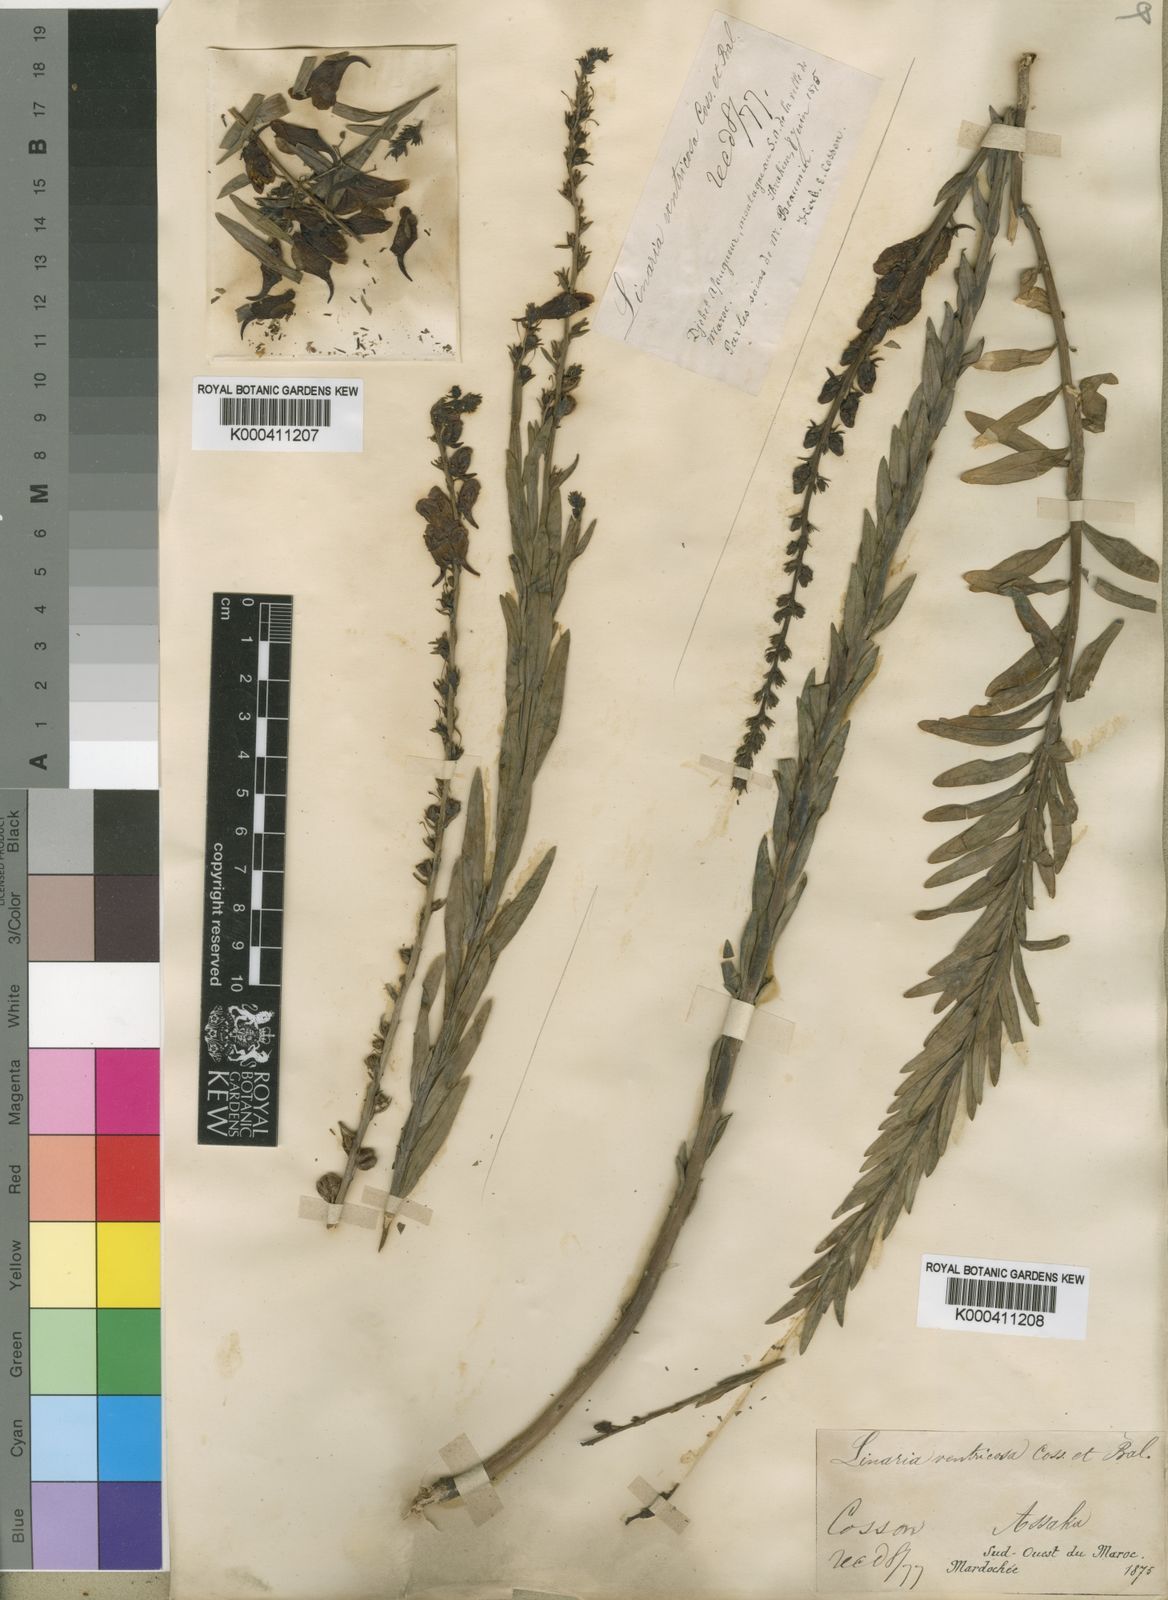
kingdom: Plantae
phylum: Tracheophyta
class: Magnoliopsida
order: Lamiales
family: Plantaginaceae
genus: Linaria
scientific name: Linaria ventricosa
